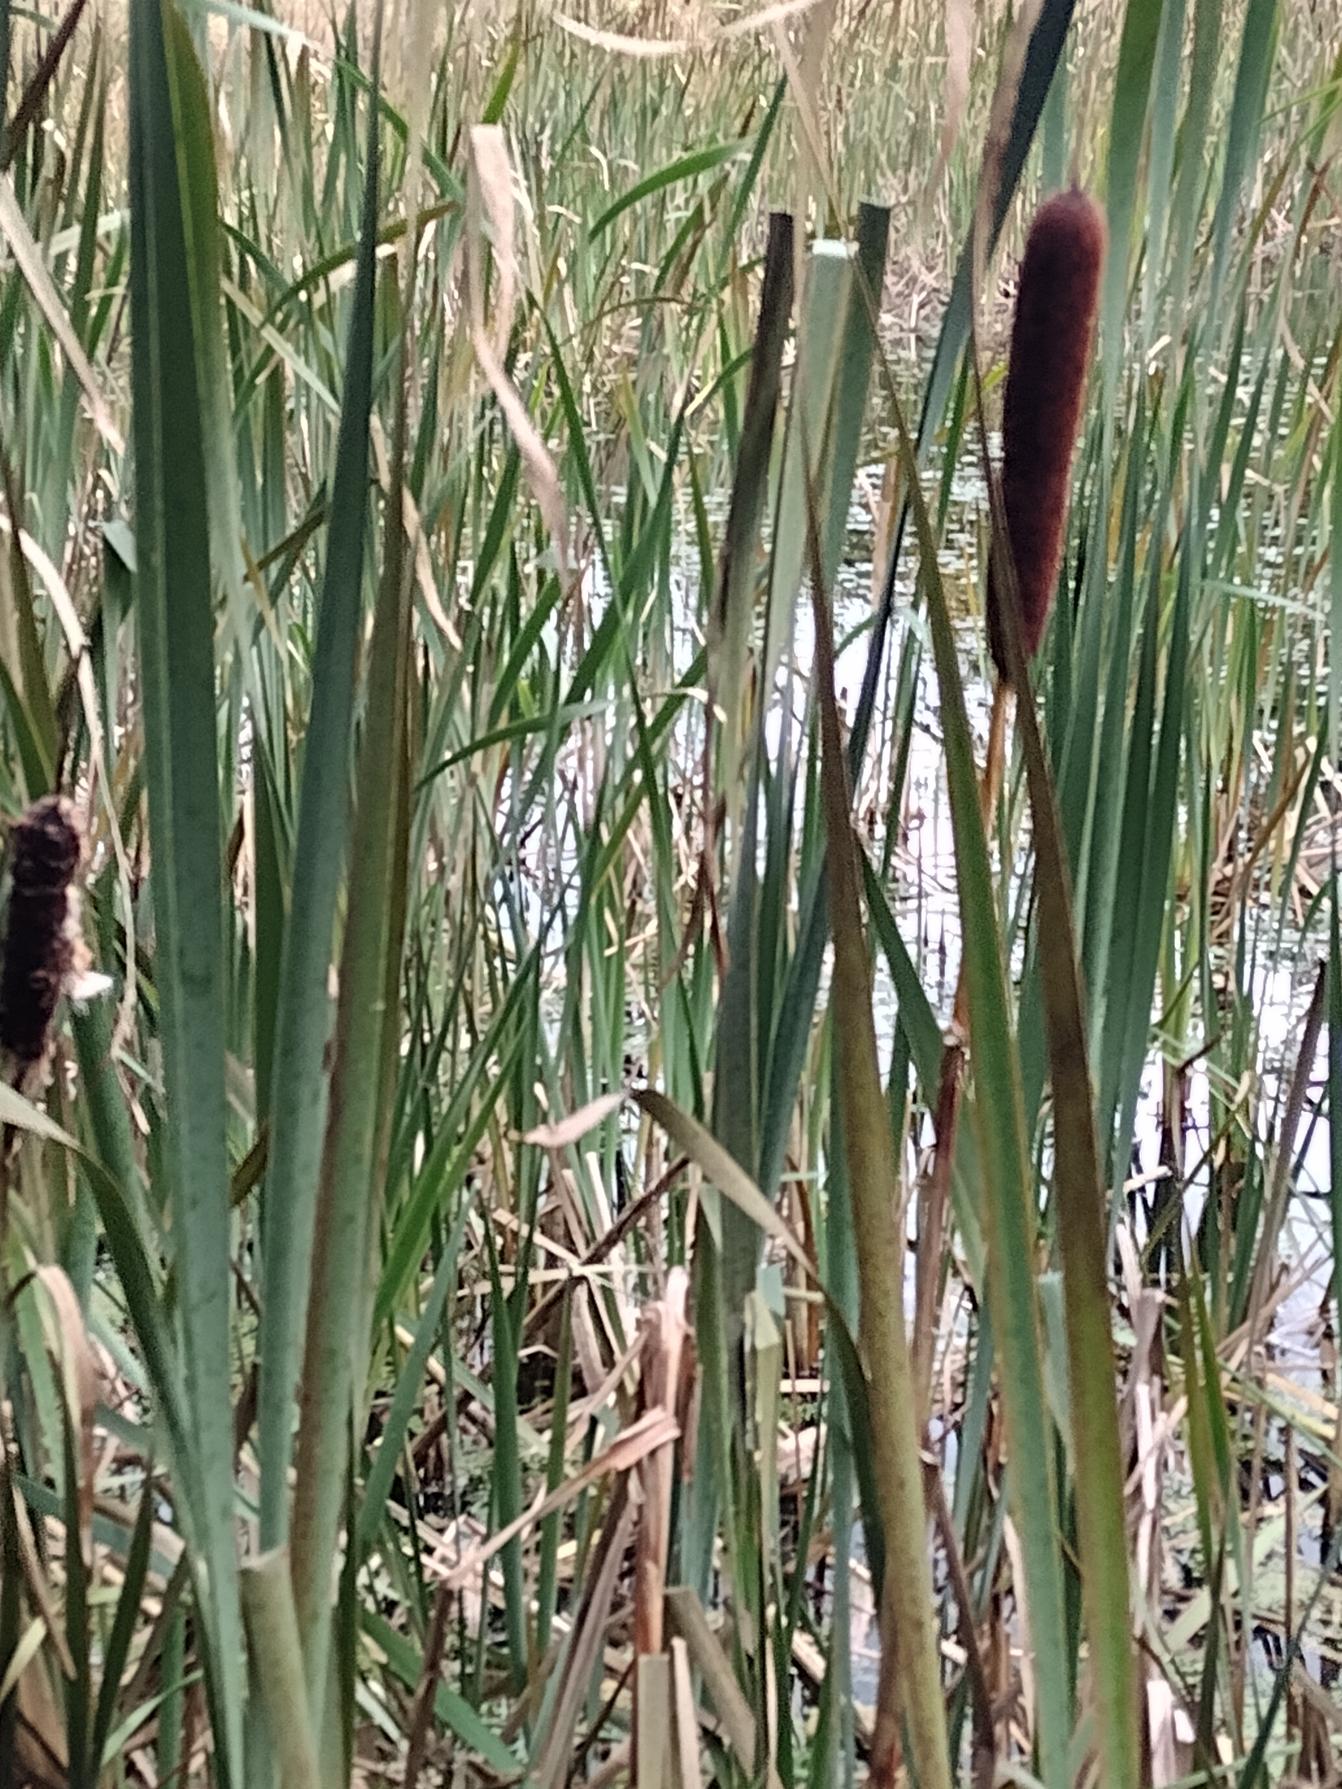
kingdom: Plantae
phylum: Tracheophyta
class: Liliopsida
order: Poales
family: Typhaceae
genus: Typha
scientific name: Typha latifolia
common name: Bredbladet dunhammer
